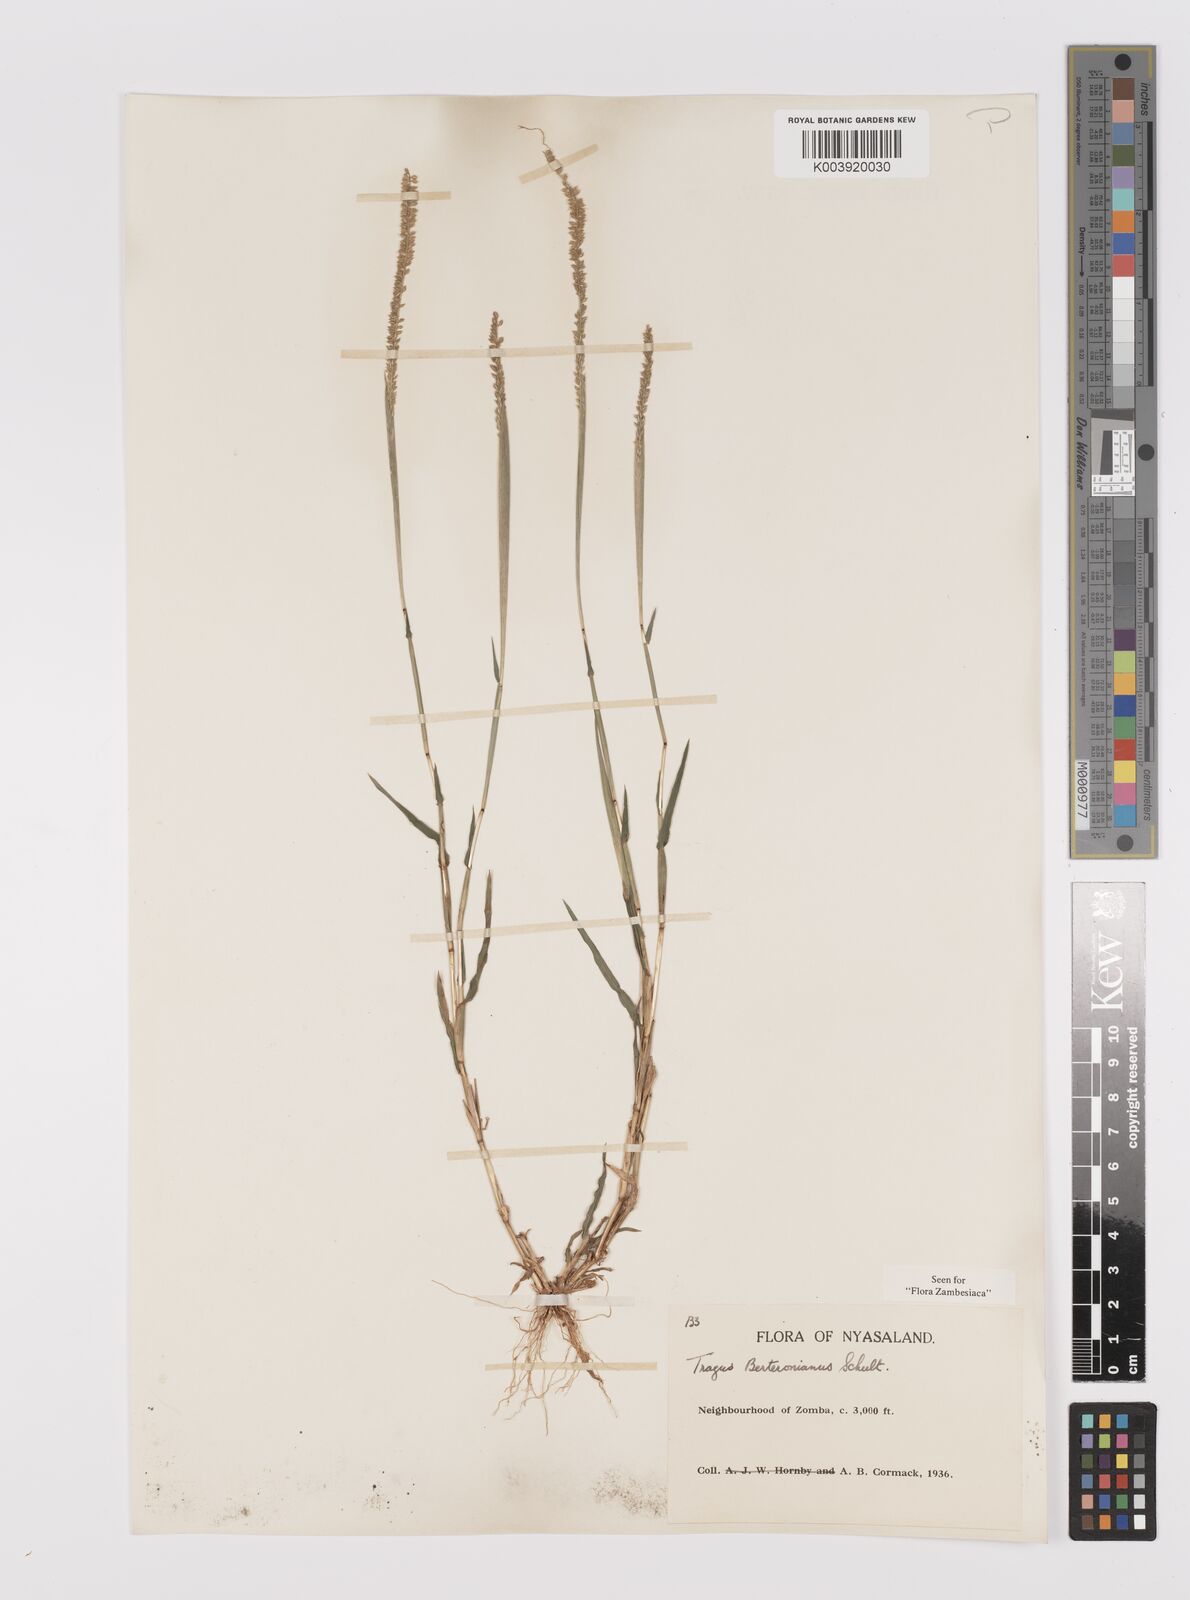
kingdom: Plantae
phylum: Tracheophyta
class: Liliopsida
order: Poales
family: Poaceae
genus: Tragus
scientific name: Tragus berteronianus
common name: African bur-grass
